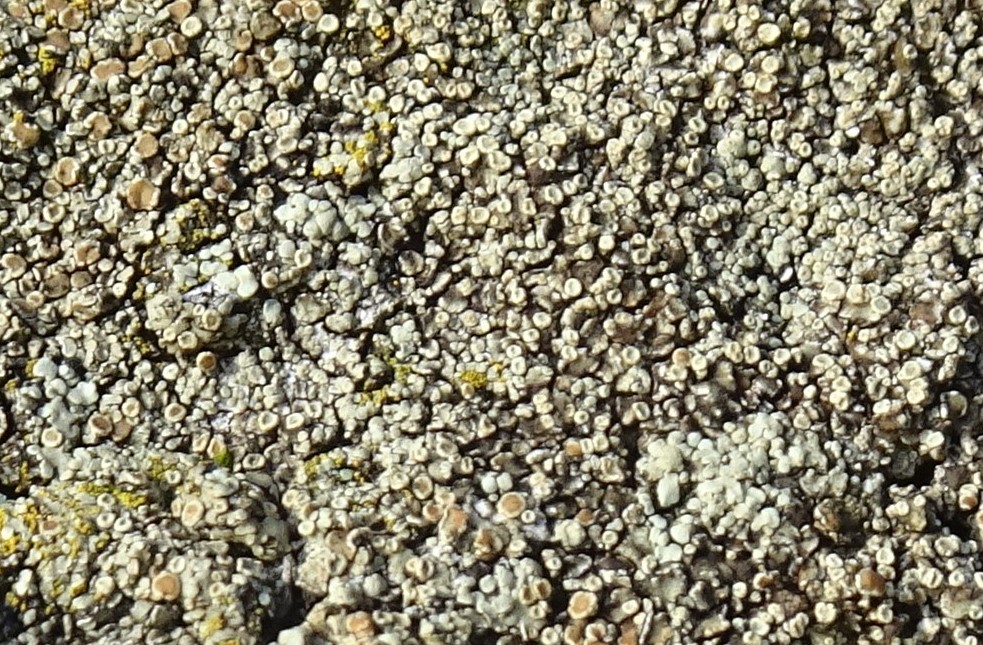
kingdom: Fungi
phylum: Ascomycota
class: Lecanoromycetes
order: Lecanorales
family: Lecanoraceae
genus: Protoparmeliopsis
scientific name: Protoparmeliopsis muralis
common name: randfliget kantskivelav
